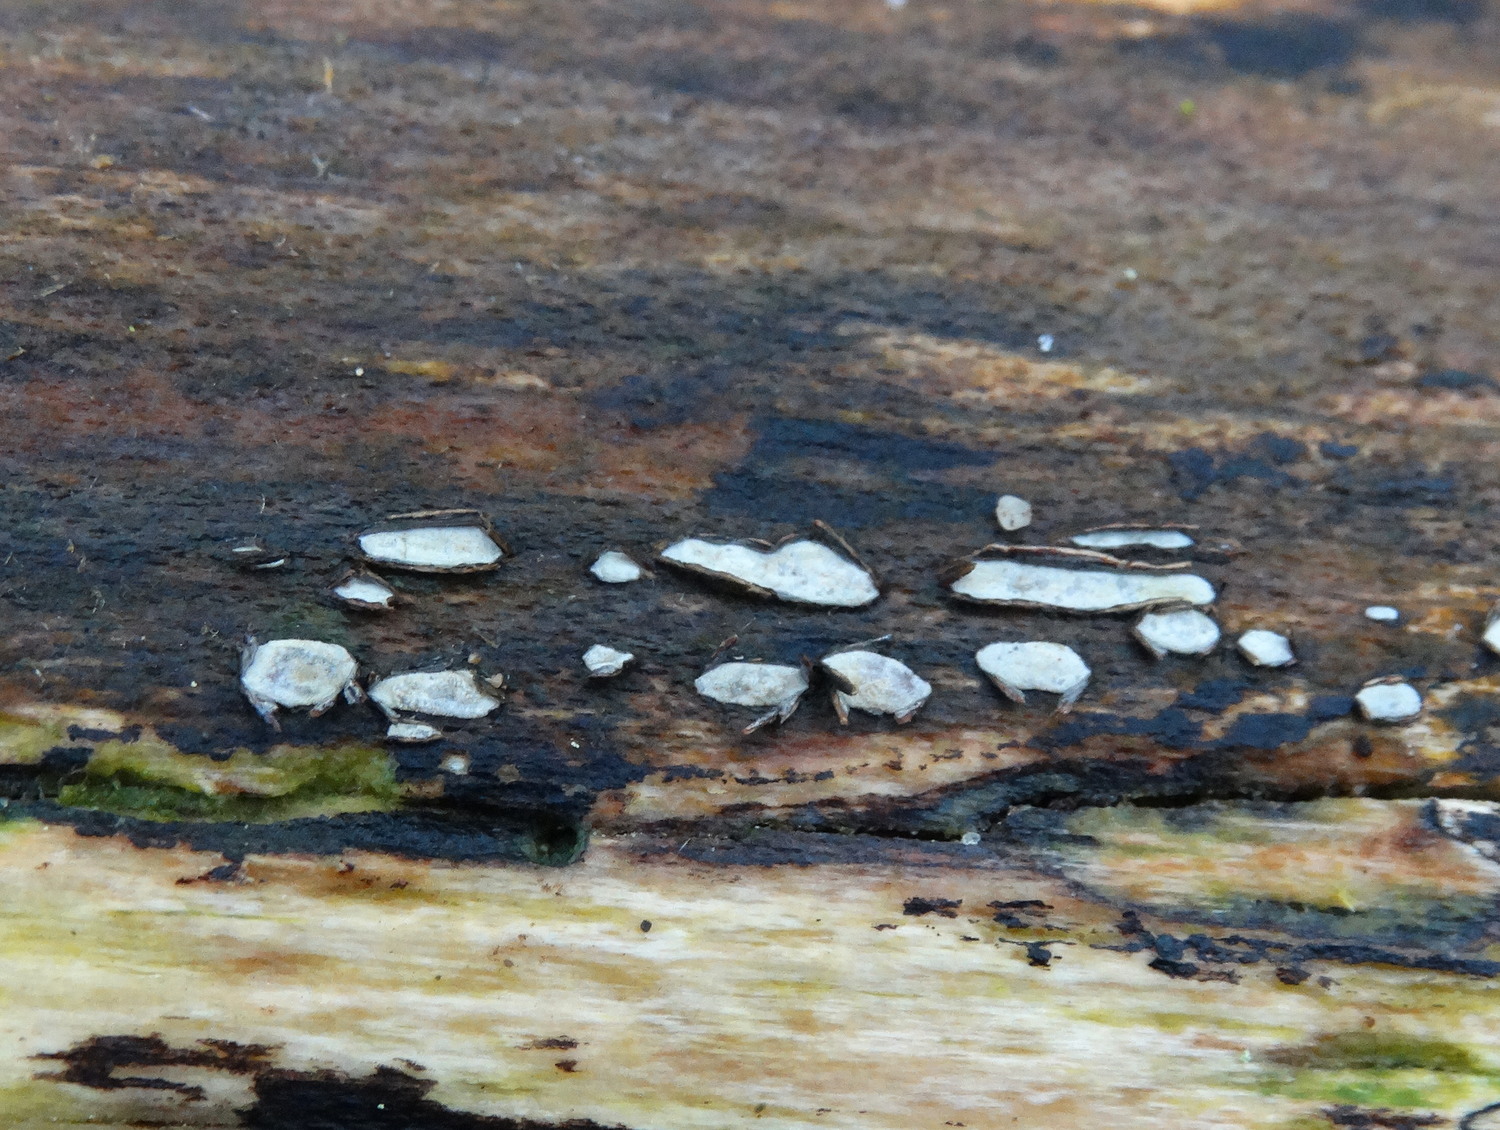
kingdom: Fungi
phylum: Ascomycota
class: Leotiomycetes
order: Chaetomellales
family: Marthamycetaceae
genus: Propolis
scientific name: Propolis farinosa
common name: almindelig vedsprængerskive
